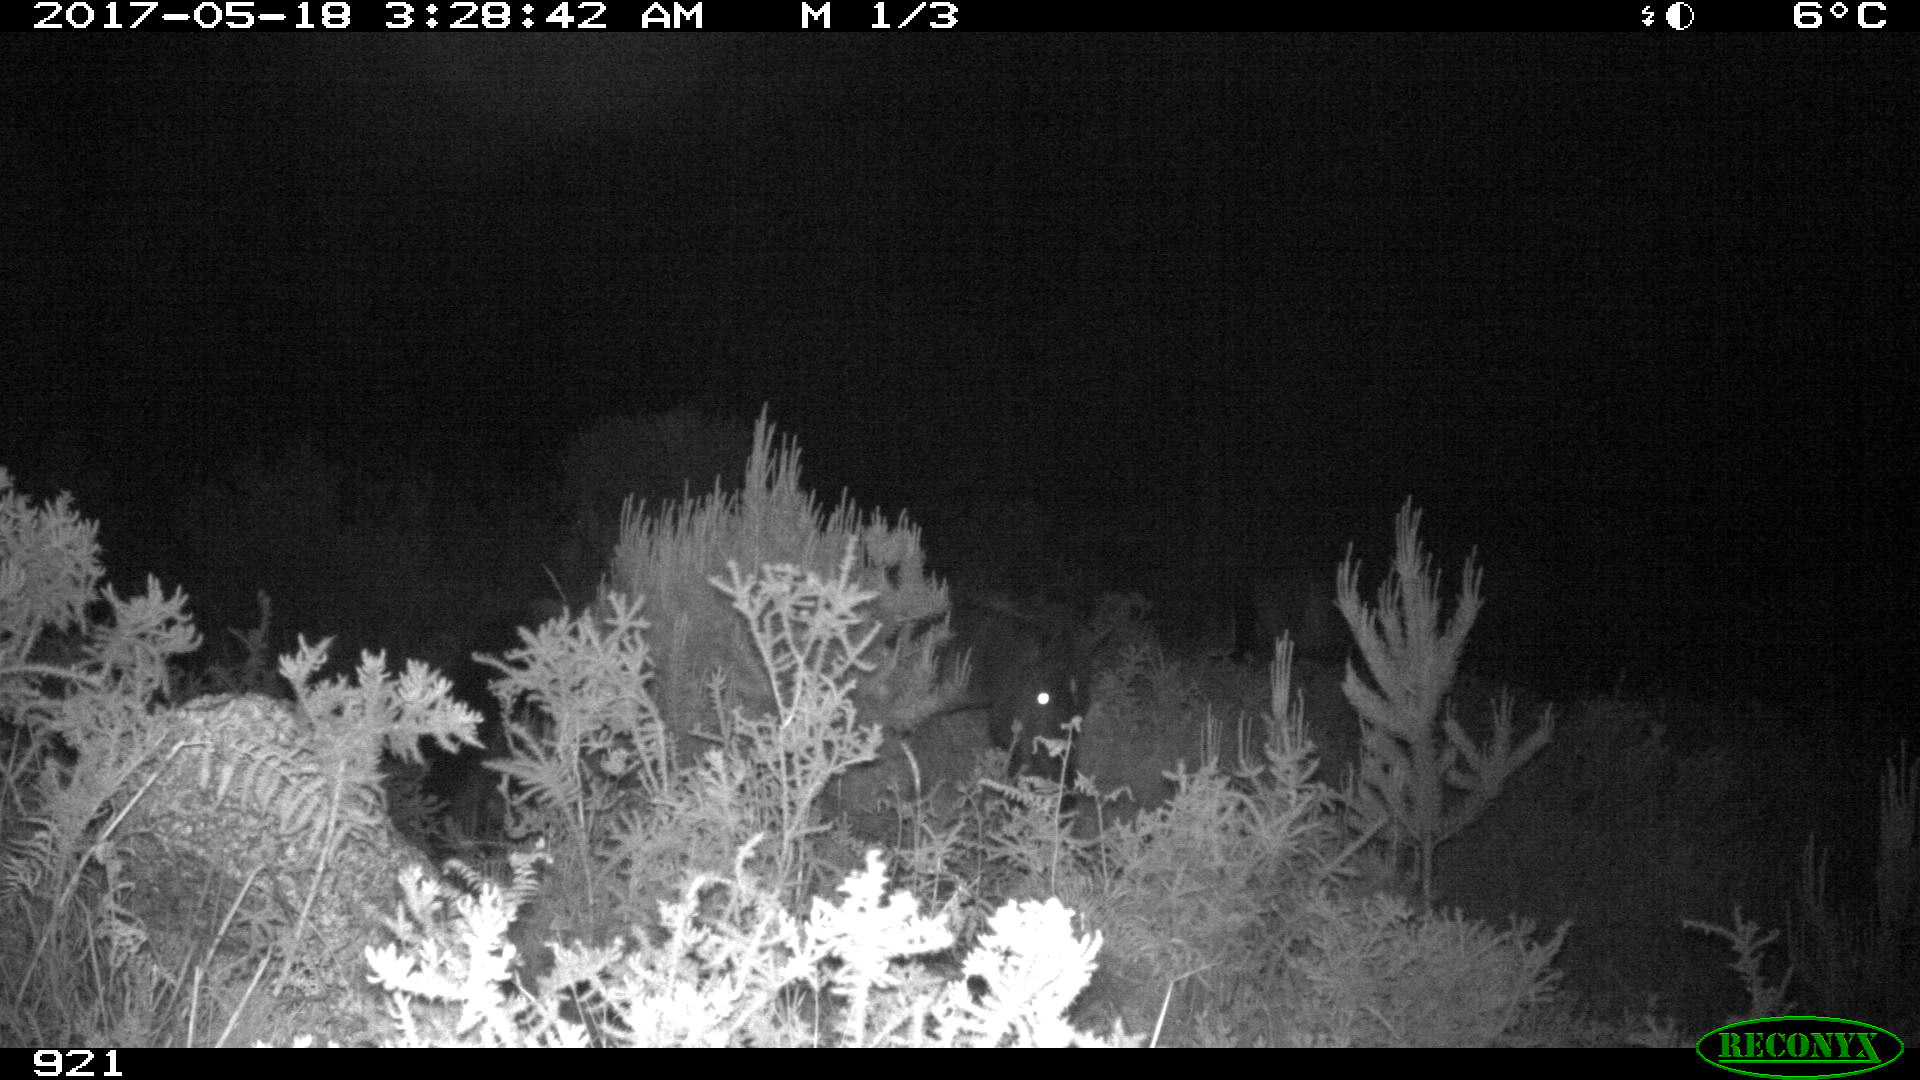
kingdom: Animalia
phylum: Chordata
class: Mammalia
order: Perissodactyla
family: Equidae
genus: Equus
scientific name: Equus caballus
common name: Horse
